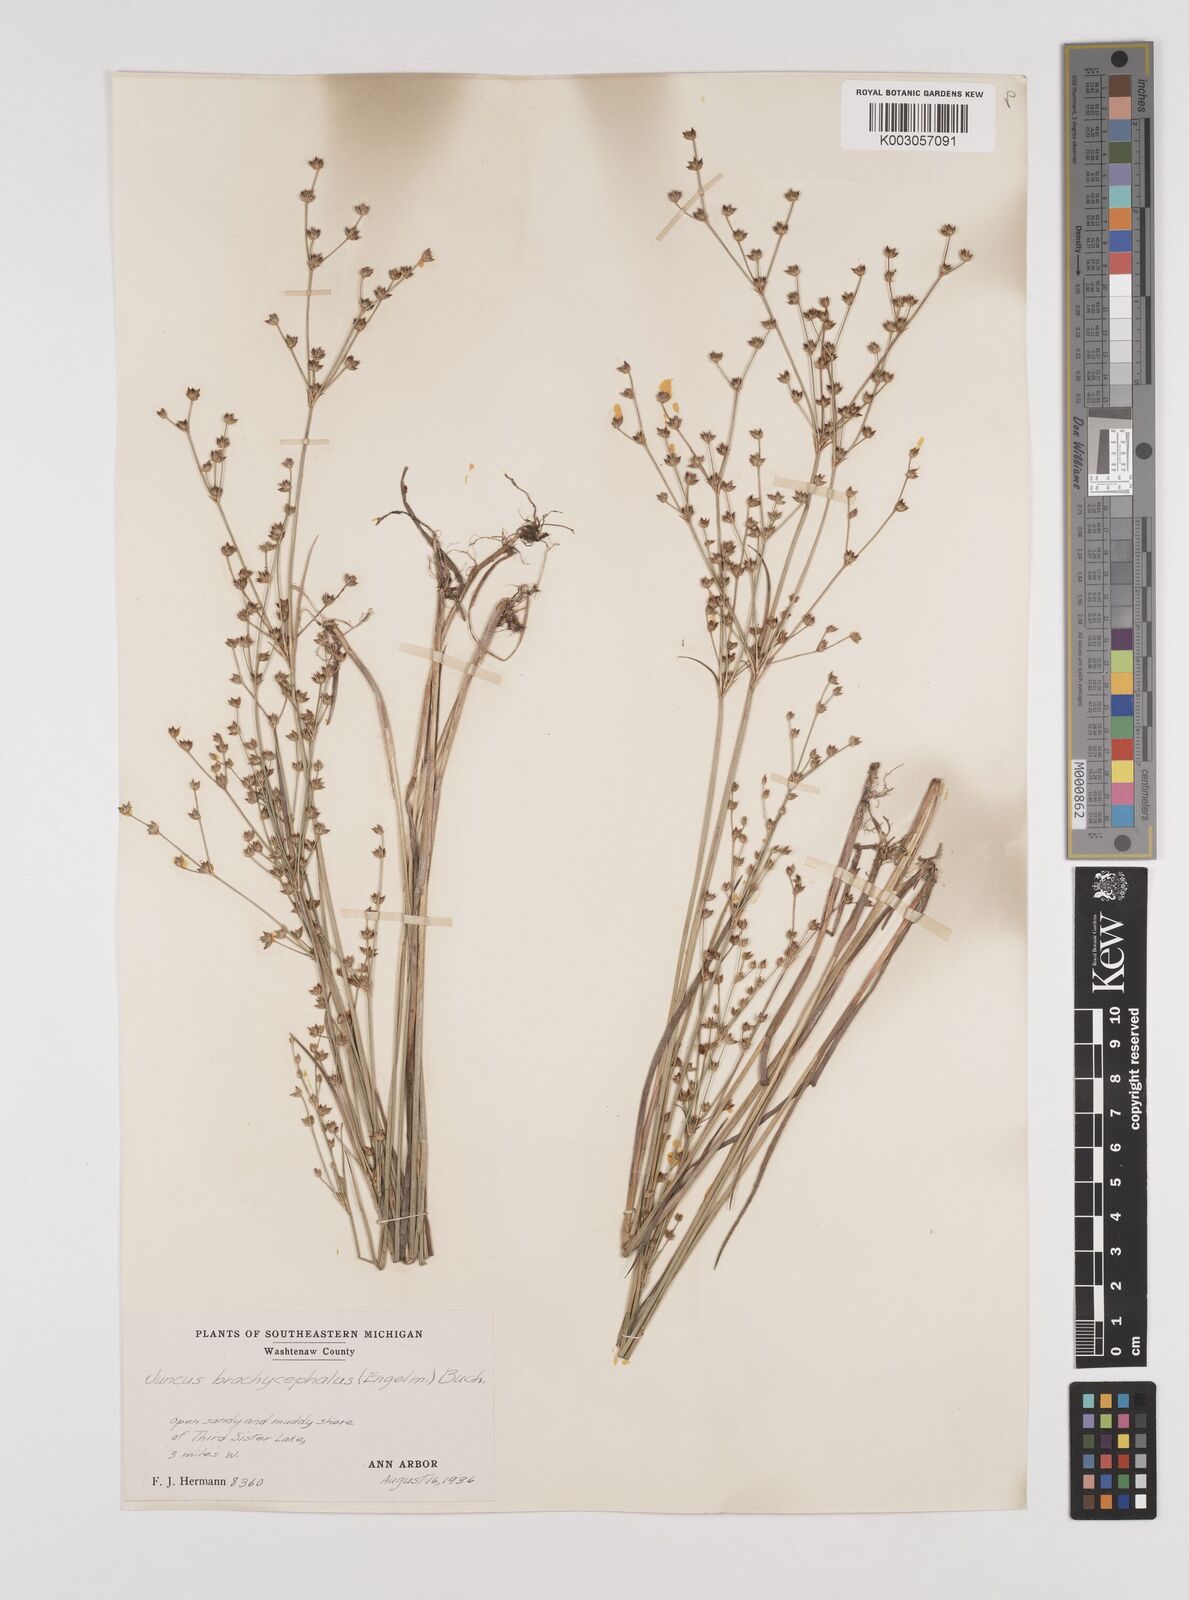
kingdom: Plantae
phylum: Tracheophyta
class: Liliopsida
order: Poales
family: Juncaceae
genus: Juncus
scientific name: Juncus canadensis
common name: Canada rush
